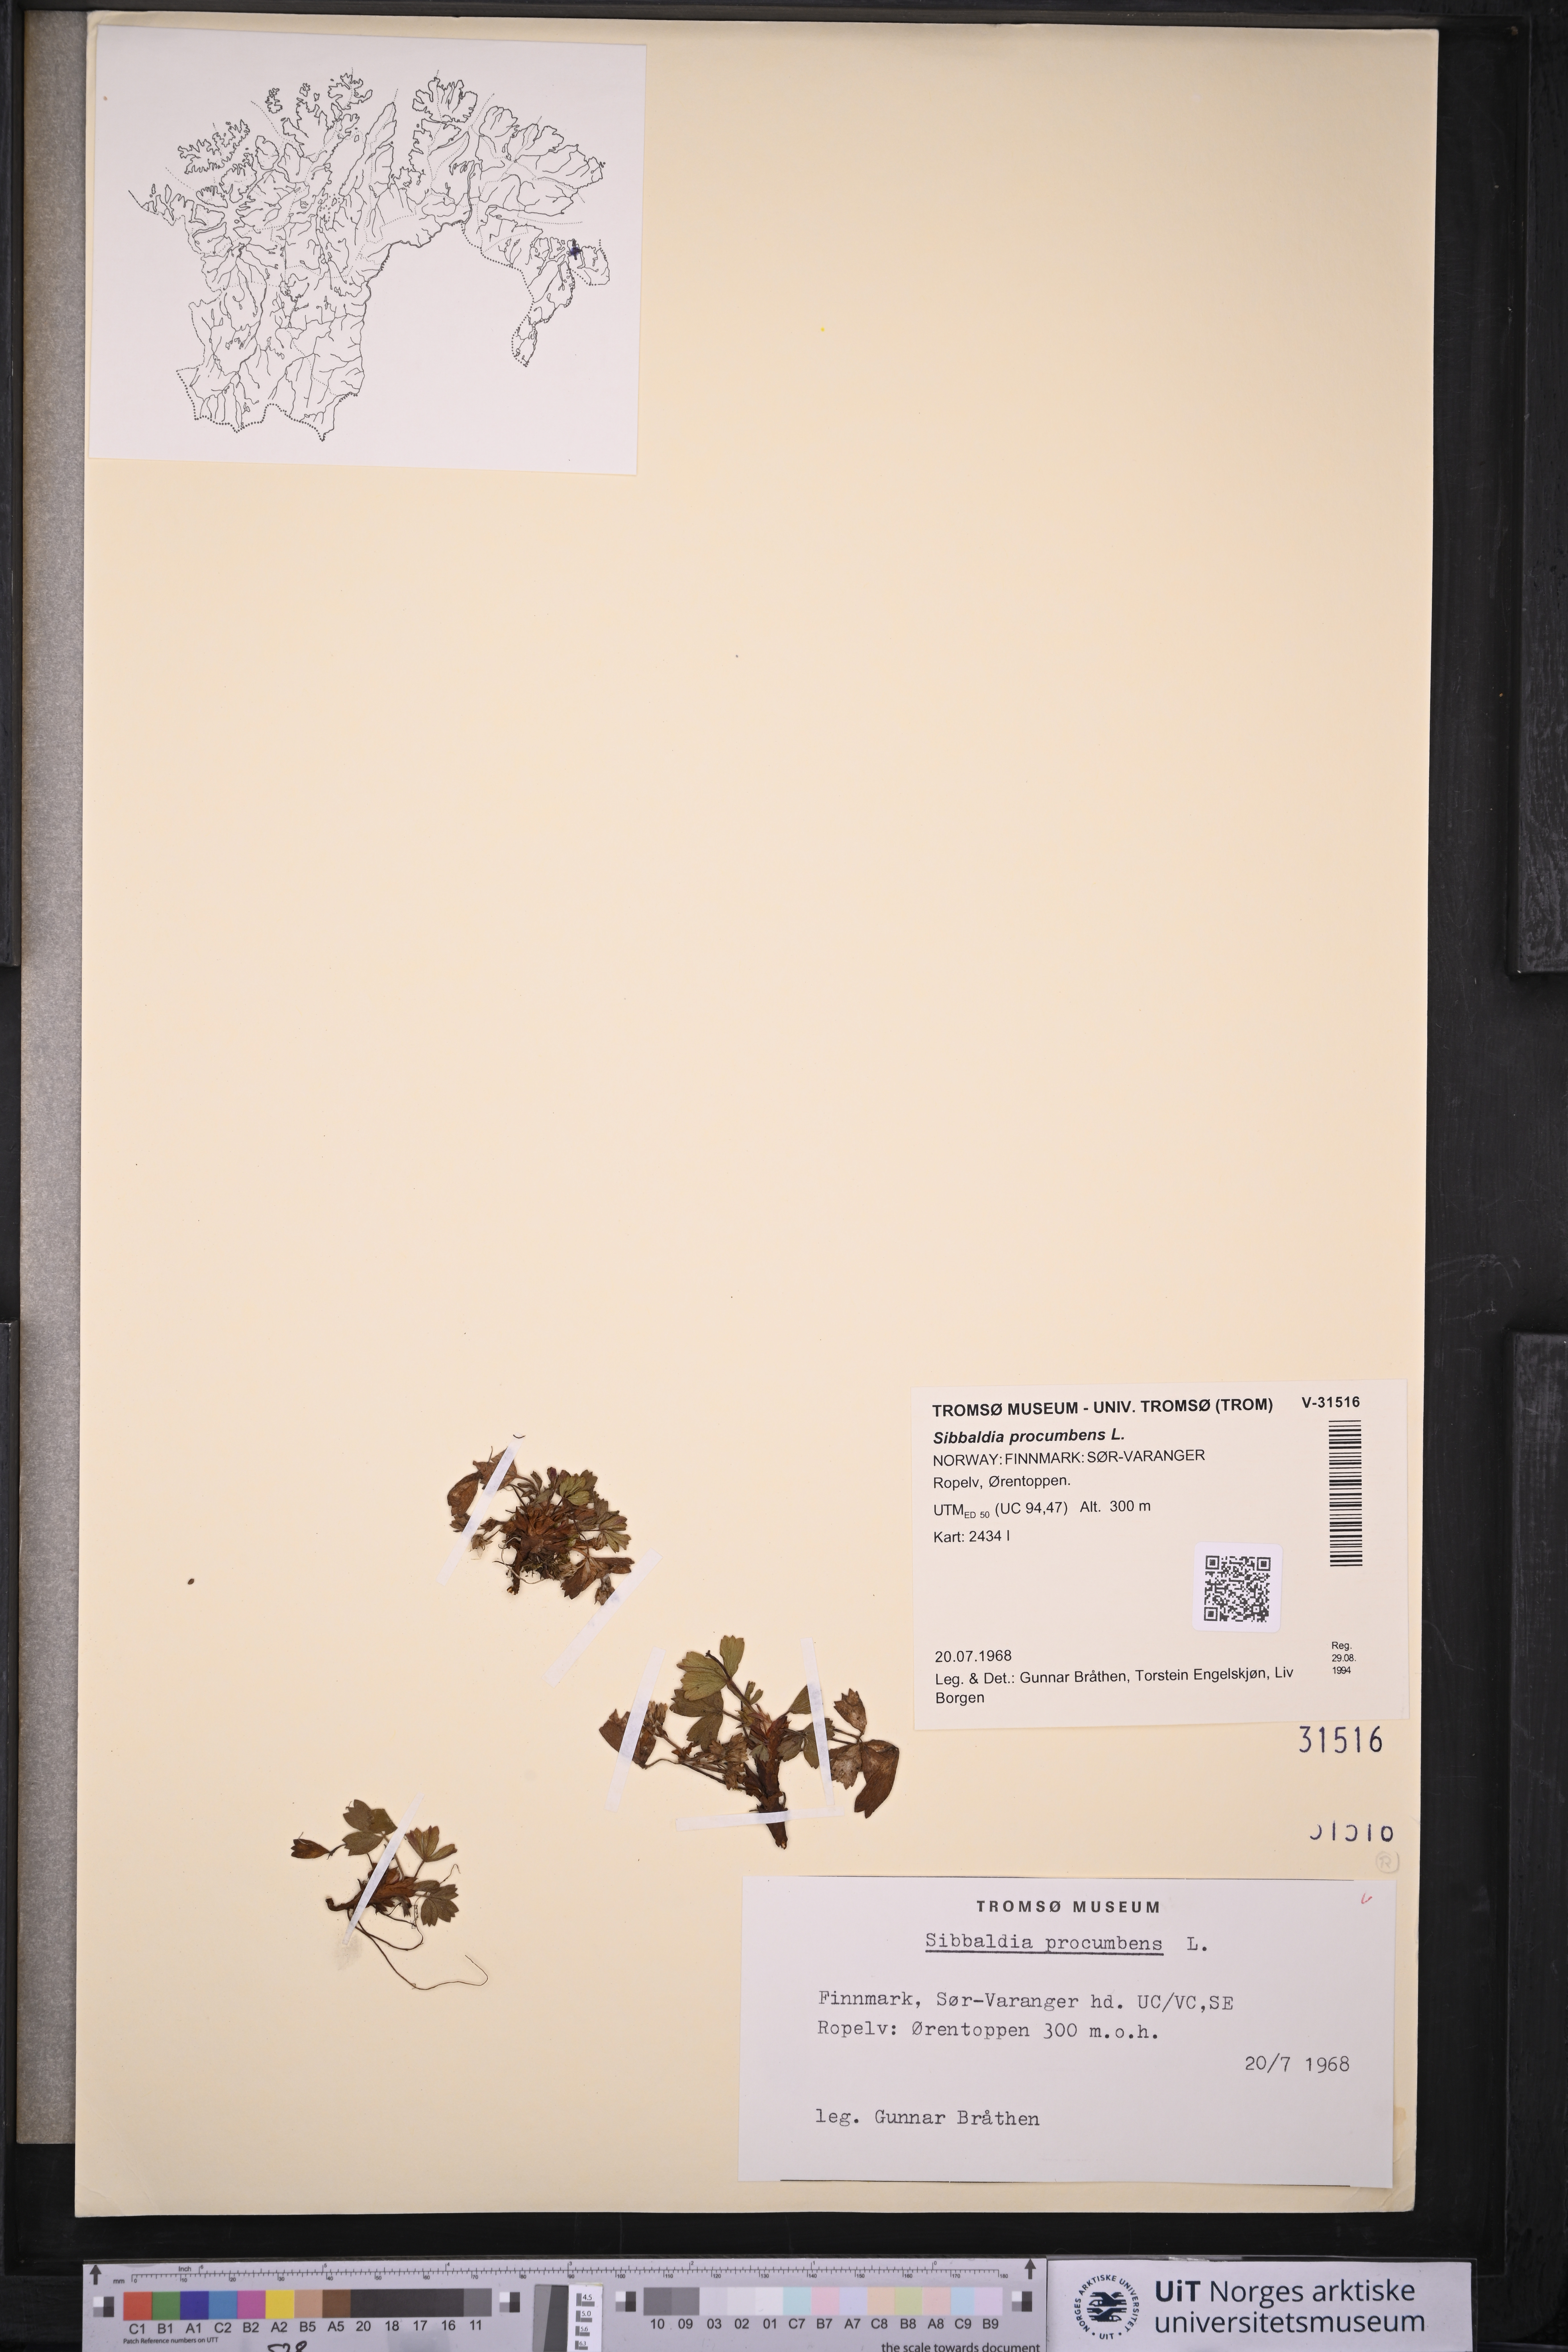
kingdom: Plantae
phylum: Tracheophyta
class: Magnoliopsida
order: Rosales
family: Rosaceae
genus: Sibbaldia
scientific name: Sibbaldia procumbens
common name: Creeping sibbaldia
